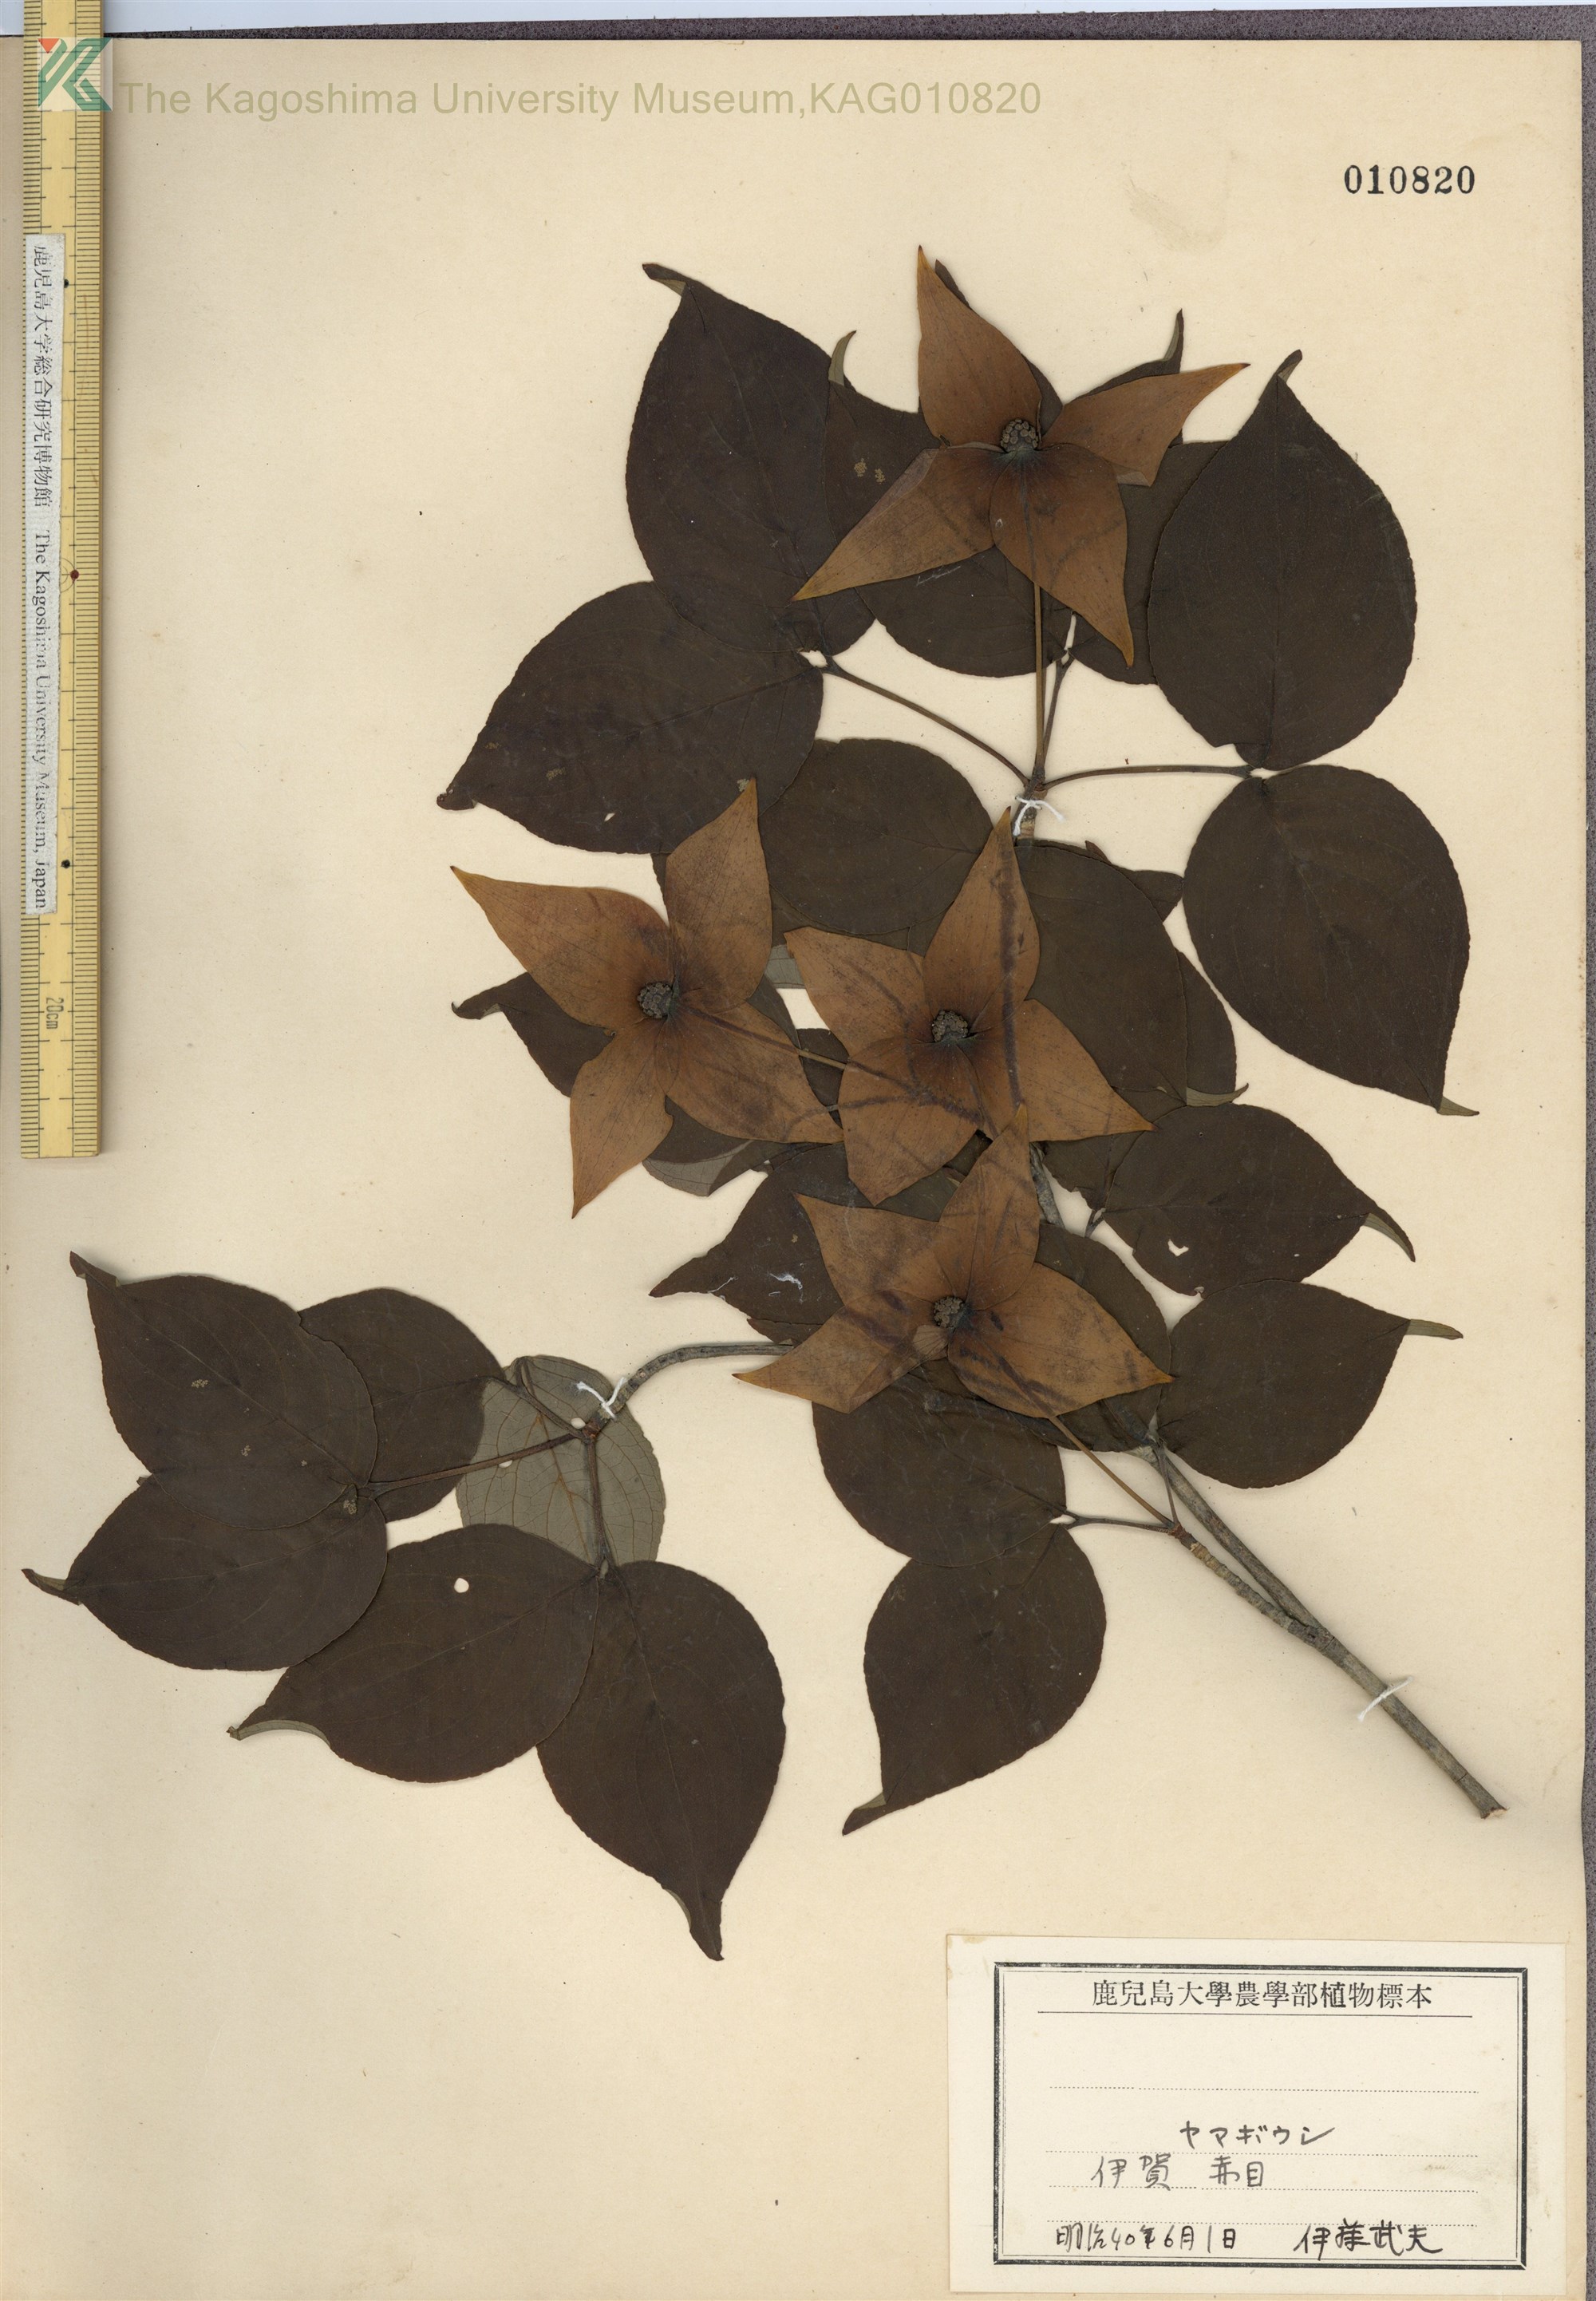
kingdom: Plantae
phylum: Tracheophyta
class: Magnoliopsida
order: Cornales
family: Cornaceae
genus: Cornus
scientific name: Cornus kousa
